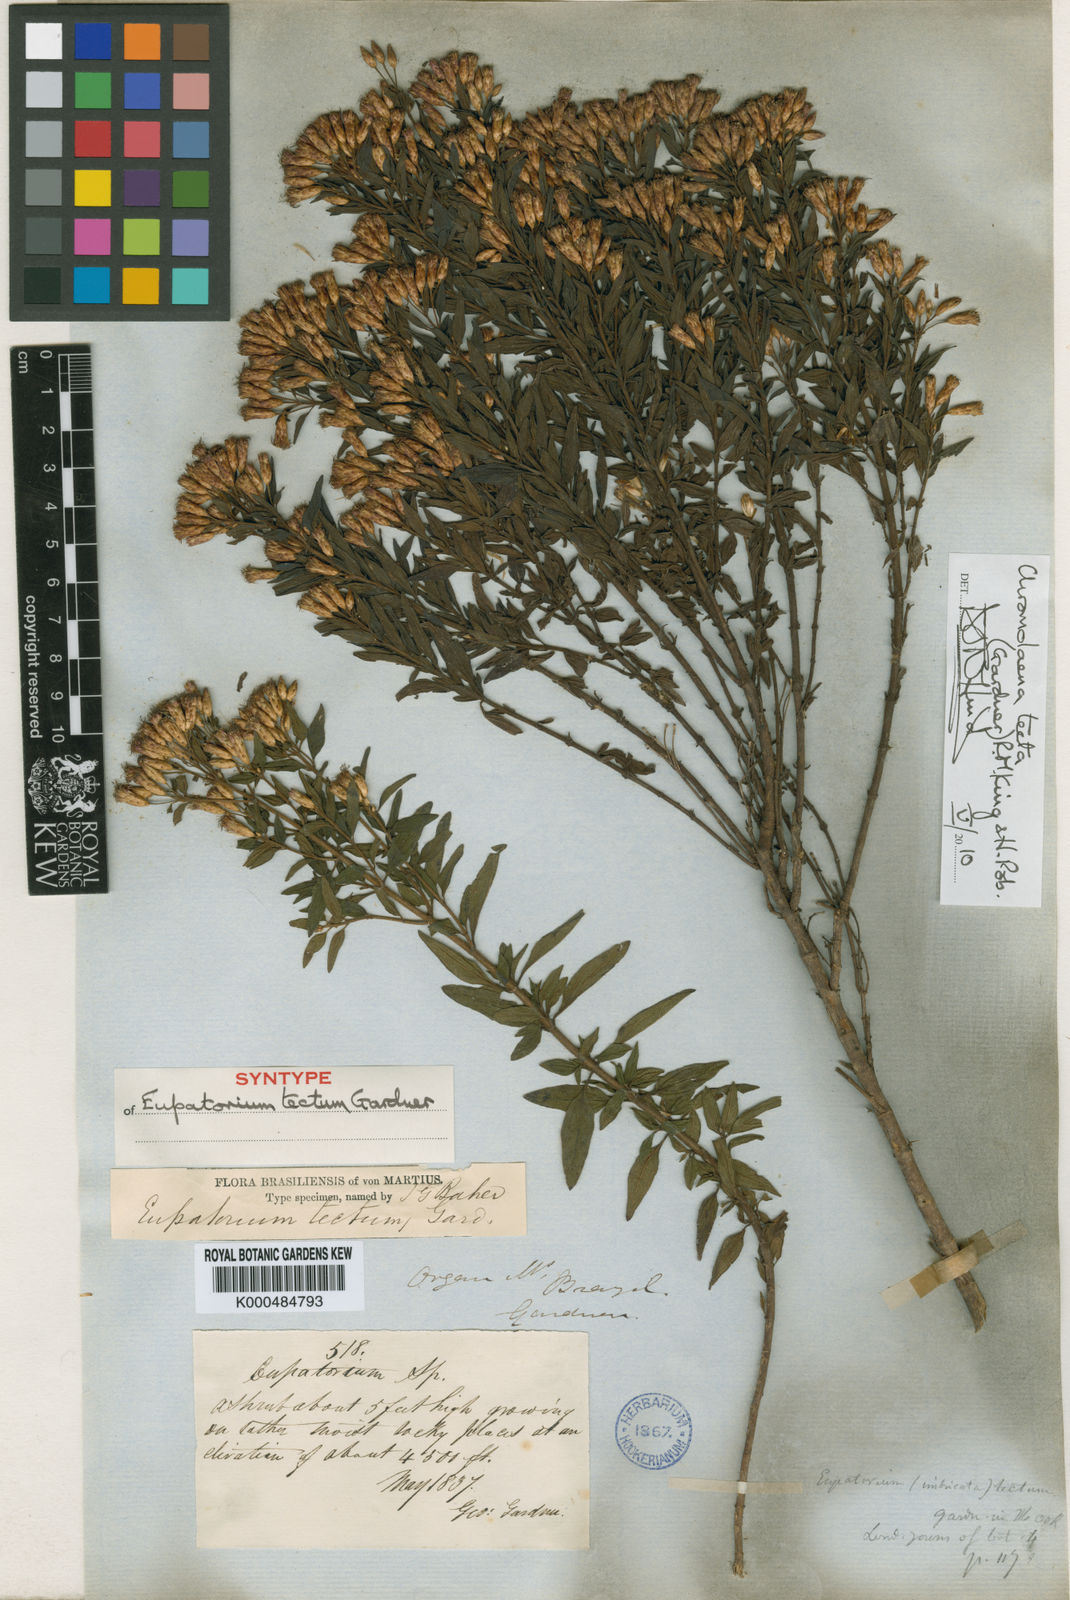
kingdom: Plantae
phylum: Tracheophyta
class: Magnoliopsida
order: Asterales
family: Asteraceae
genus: Chromolaena
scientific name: Chromolaena tecta
